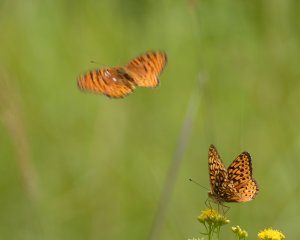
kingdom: Animalia
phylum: Arthropoda
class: Insecta
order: Lepidoptera
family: Nymphalidae
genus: Speyeria
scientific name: Speyeria atlantis
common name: Atlantis Fritillary
